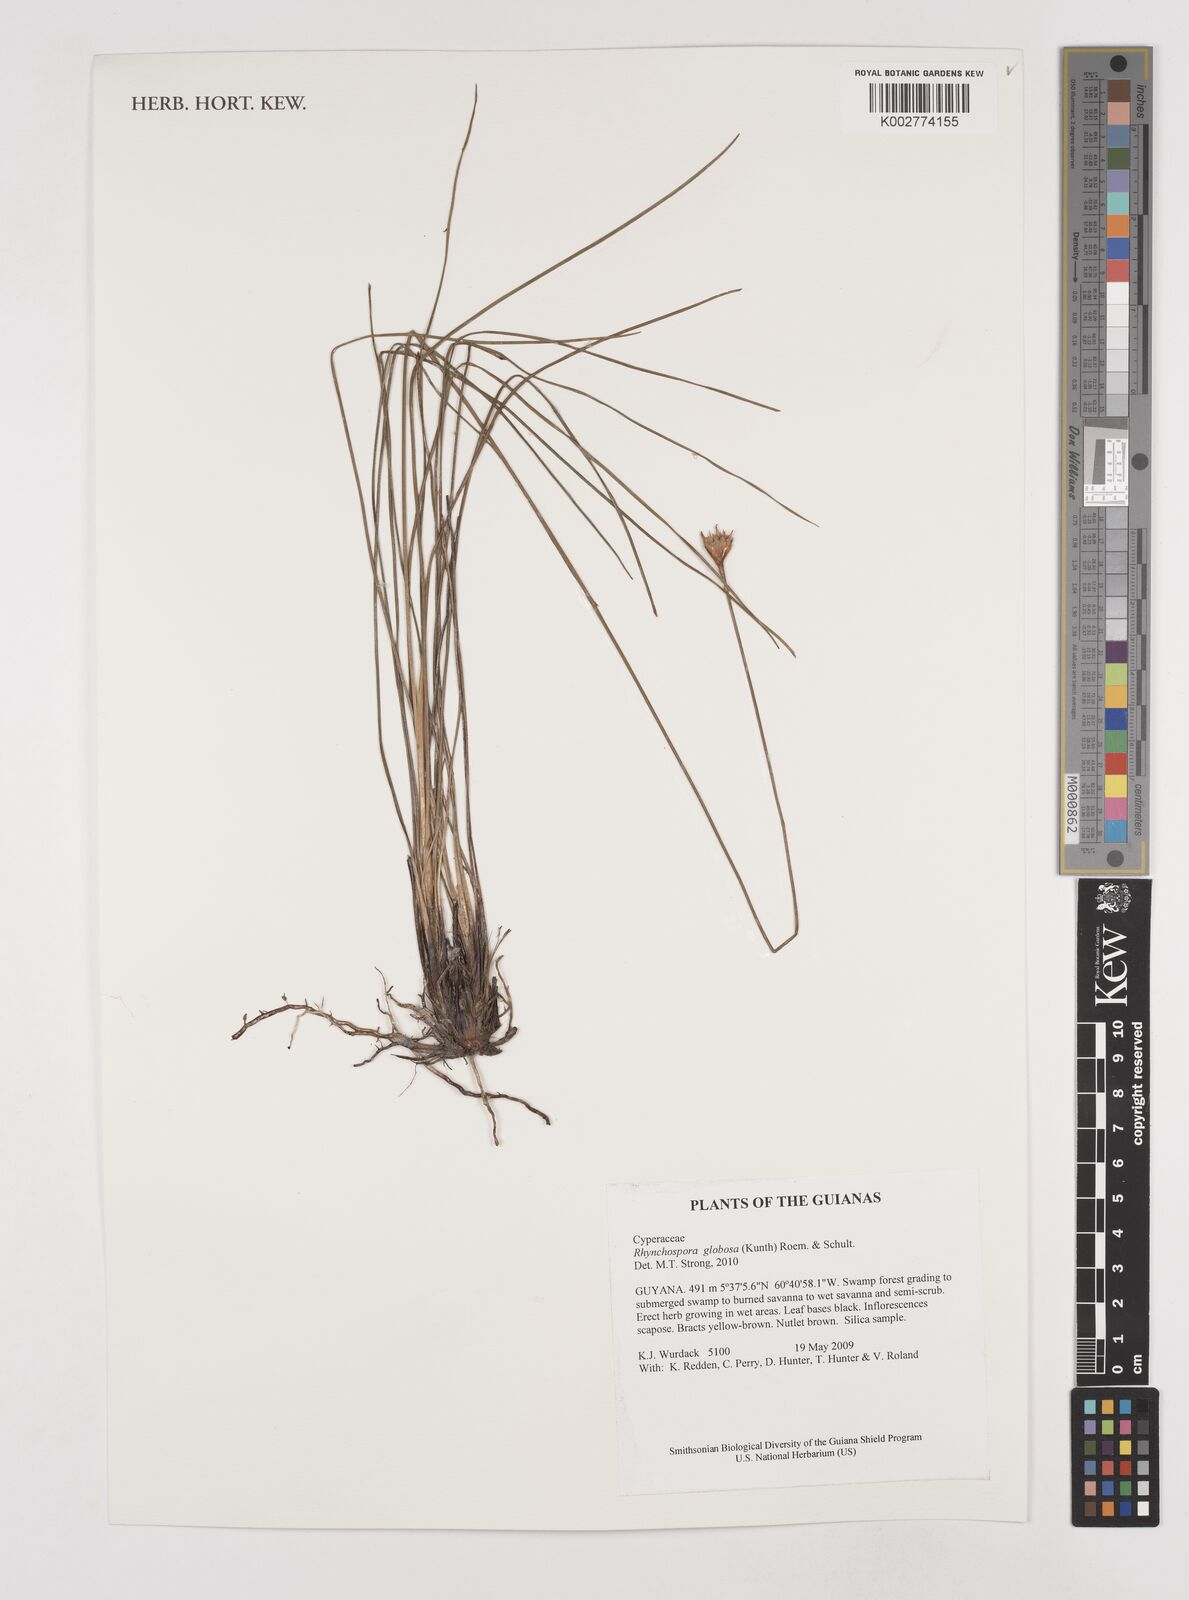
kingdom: Plantae
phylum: Tracheophyta
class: Liliopsida
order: Poales
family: Cyperaceae
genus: Rhynchospora
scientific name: Rhynchospora globosa
